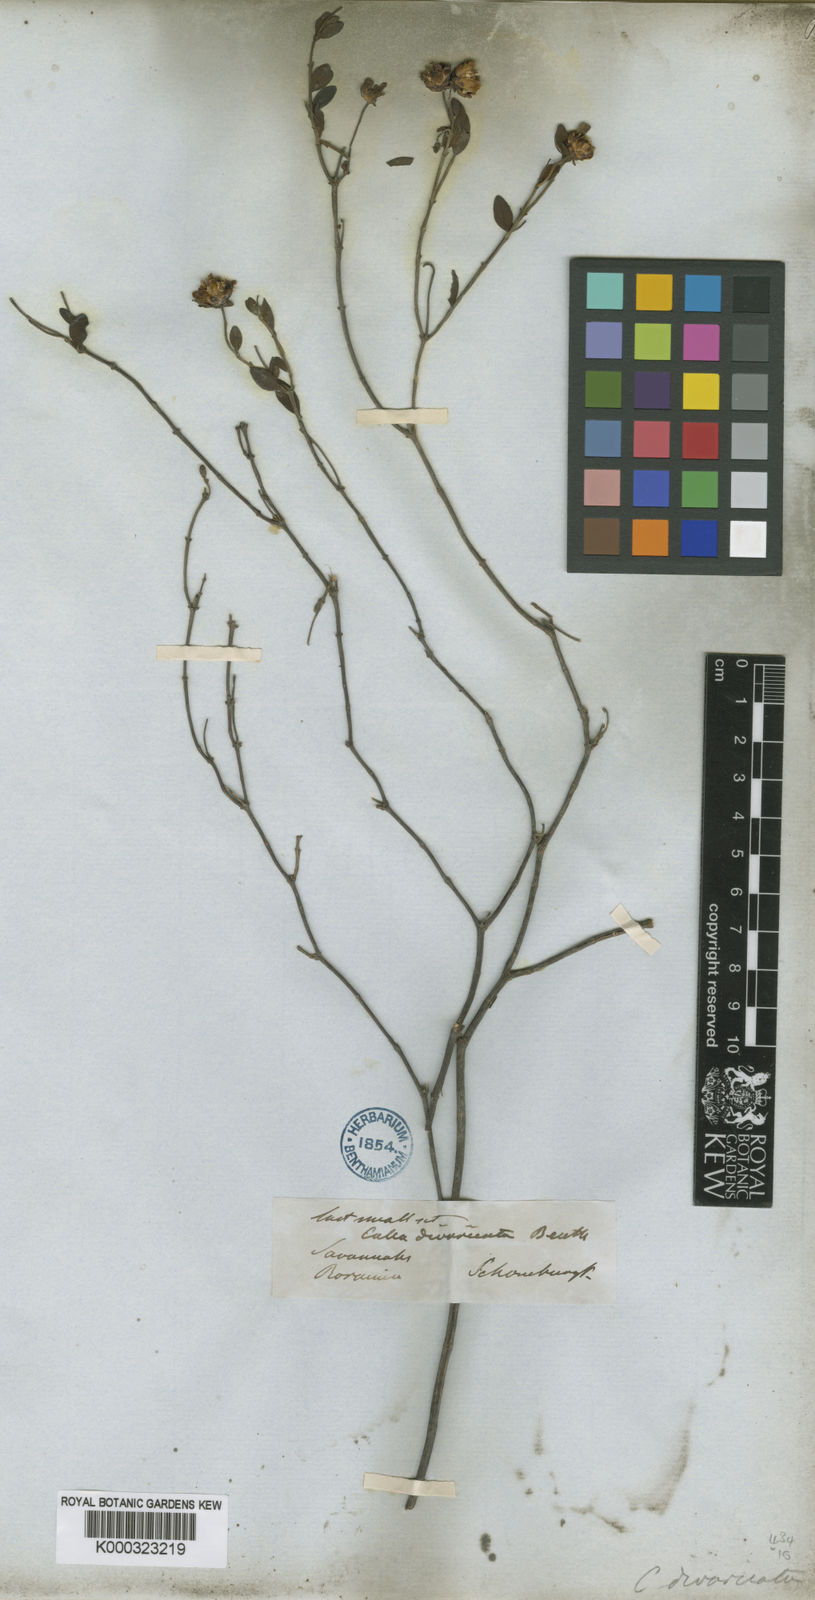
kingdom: Plantae
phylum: Tracheophyta
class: Magnoliopsida
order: Asterales
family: Asteraceae
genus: Calea
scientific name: Calea divaricata
